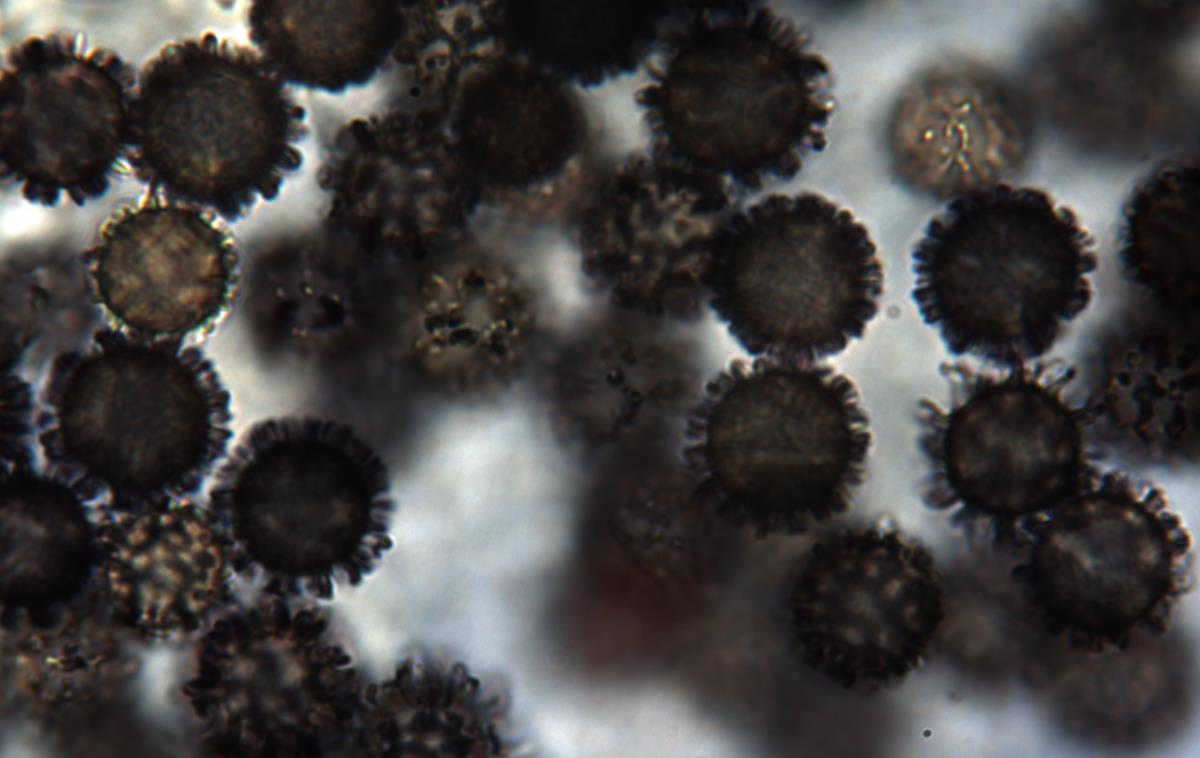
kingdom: Fungi
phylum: Basidiomycota
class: Agaricomycetes
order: Russulales
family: Russulaceae
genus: Russula
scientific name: Russula osphranticarpa
